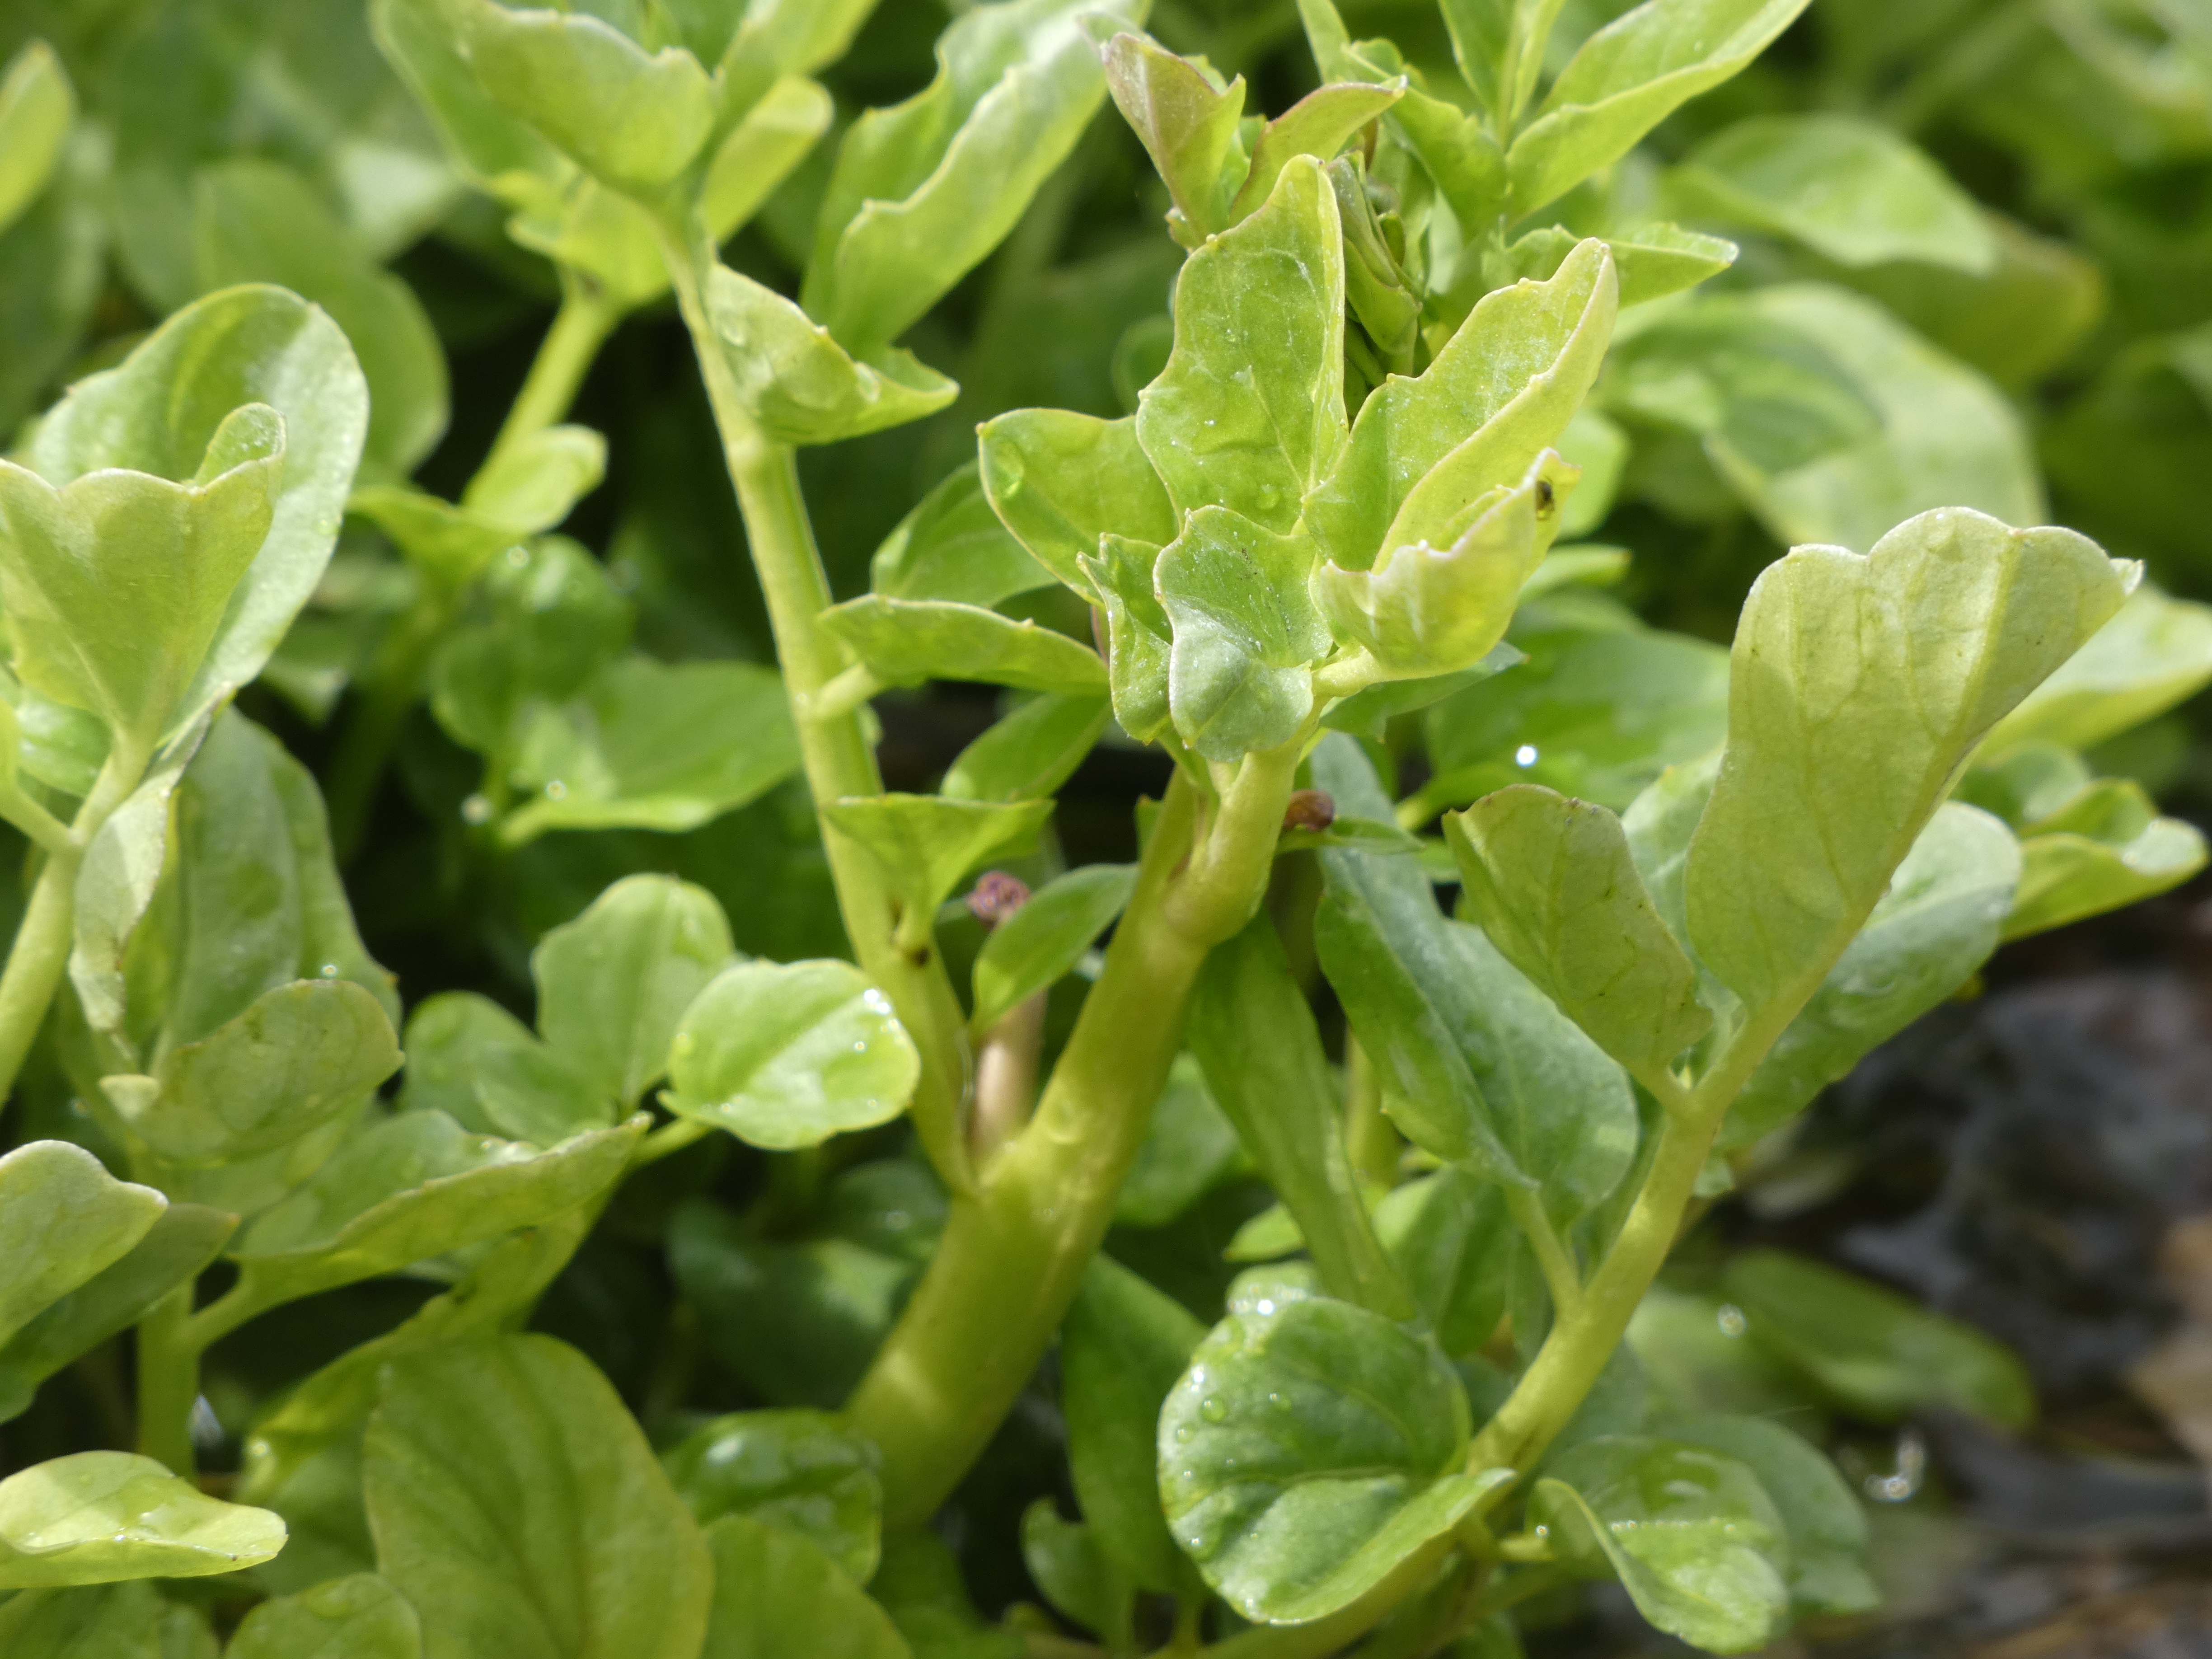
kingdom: Plantae
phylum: Tracheophyta
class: Magnoliopsida
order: Brassicales
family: Brassicaceae
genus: Cardamine
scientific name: Cardamine amara
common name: Vandkarse
